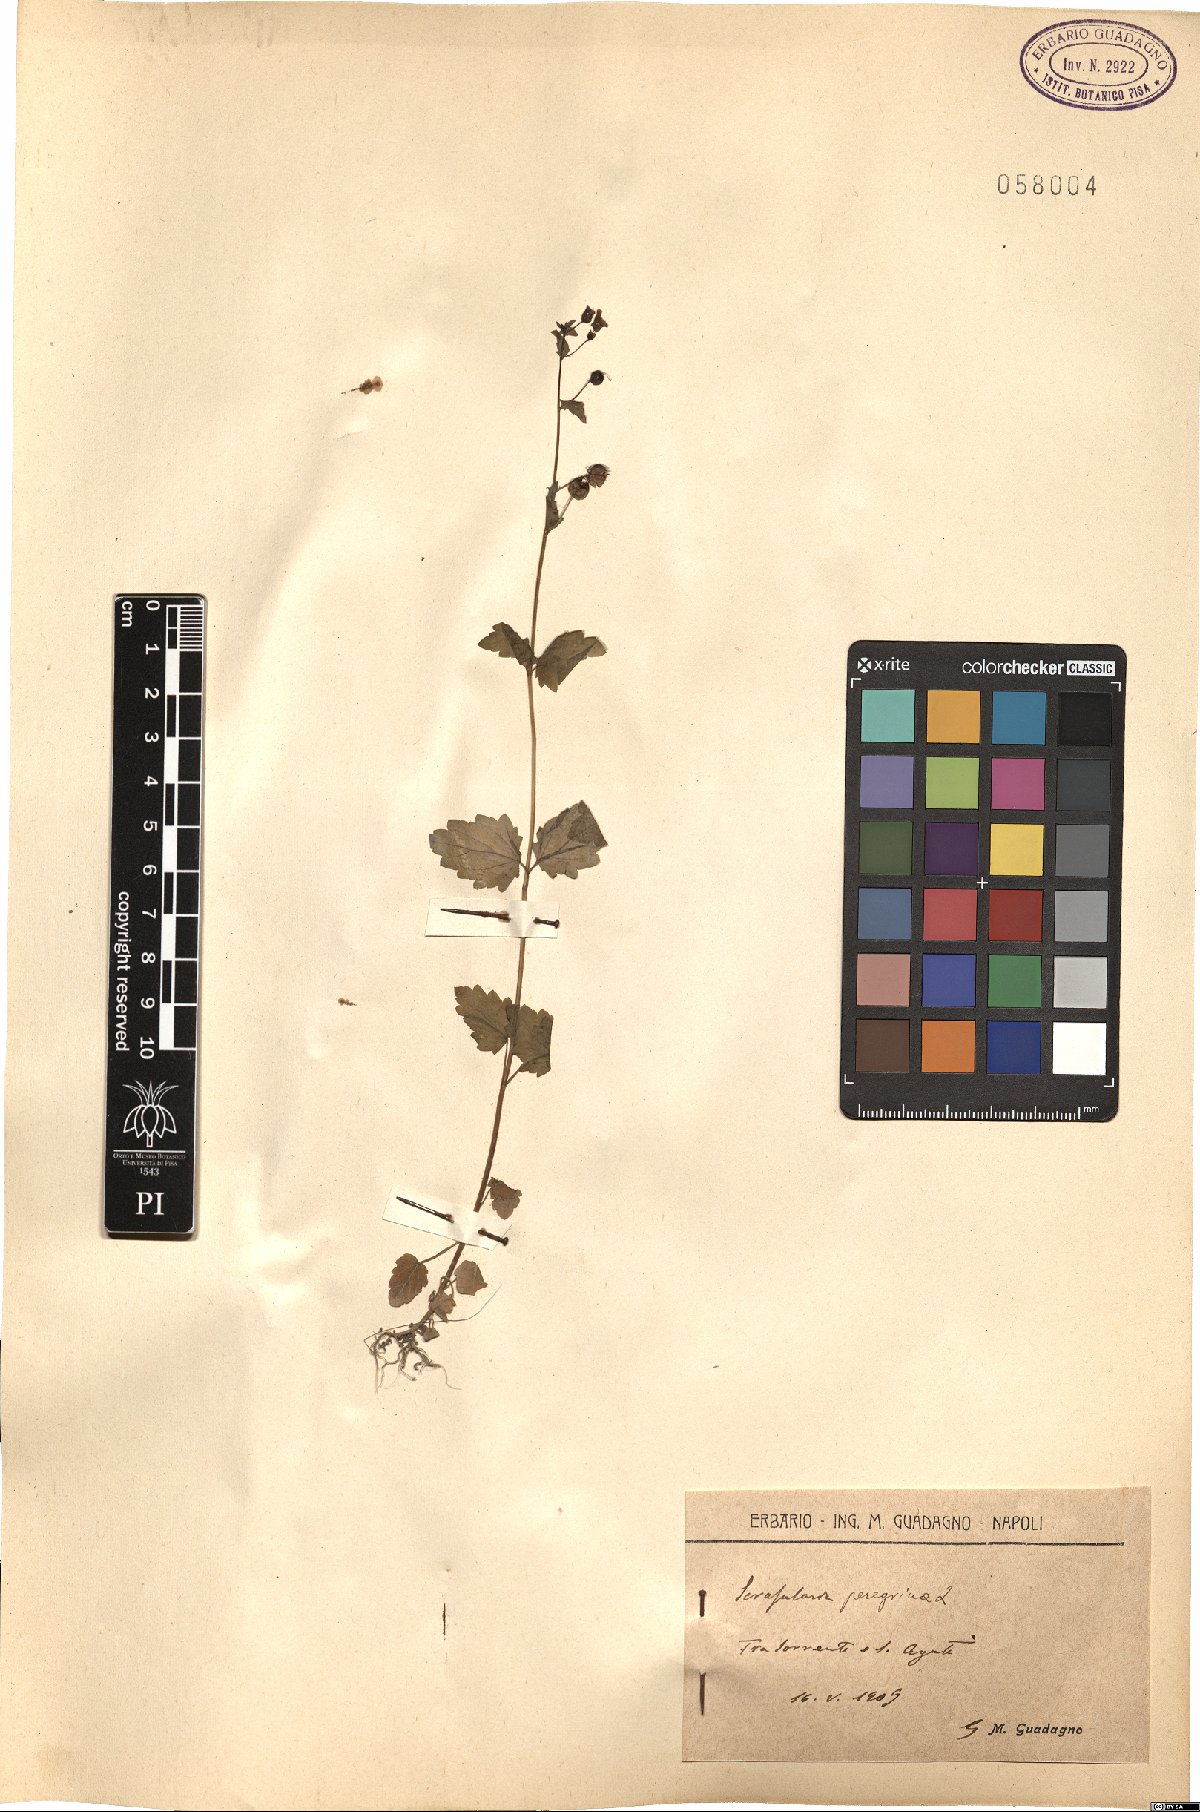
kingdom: Plantae
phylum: Tracheophyta
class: Magnoliopsida
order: Lamiales
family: Scrophulariaceae
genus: Scrophularia
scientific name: Scrophularia peregrina
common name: Mediterranean figwort
